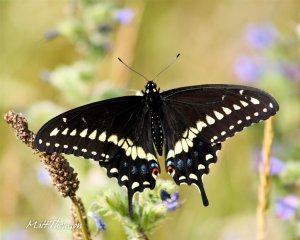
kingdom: Animalia
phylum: Arthropoda
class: Insecta
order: Lepidoptera
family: Papilionidae
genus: Papilio
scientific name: Papilio polyxenes
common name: Black Swallowtail
